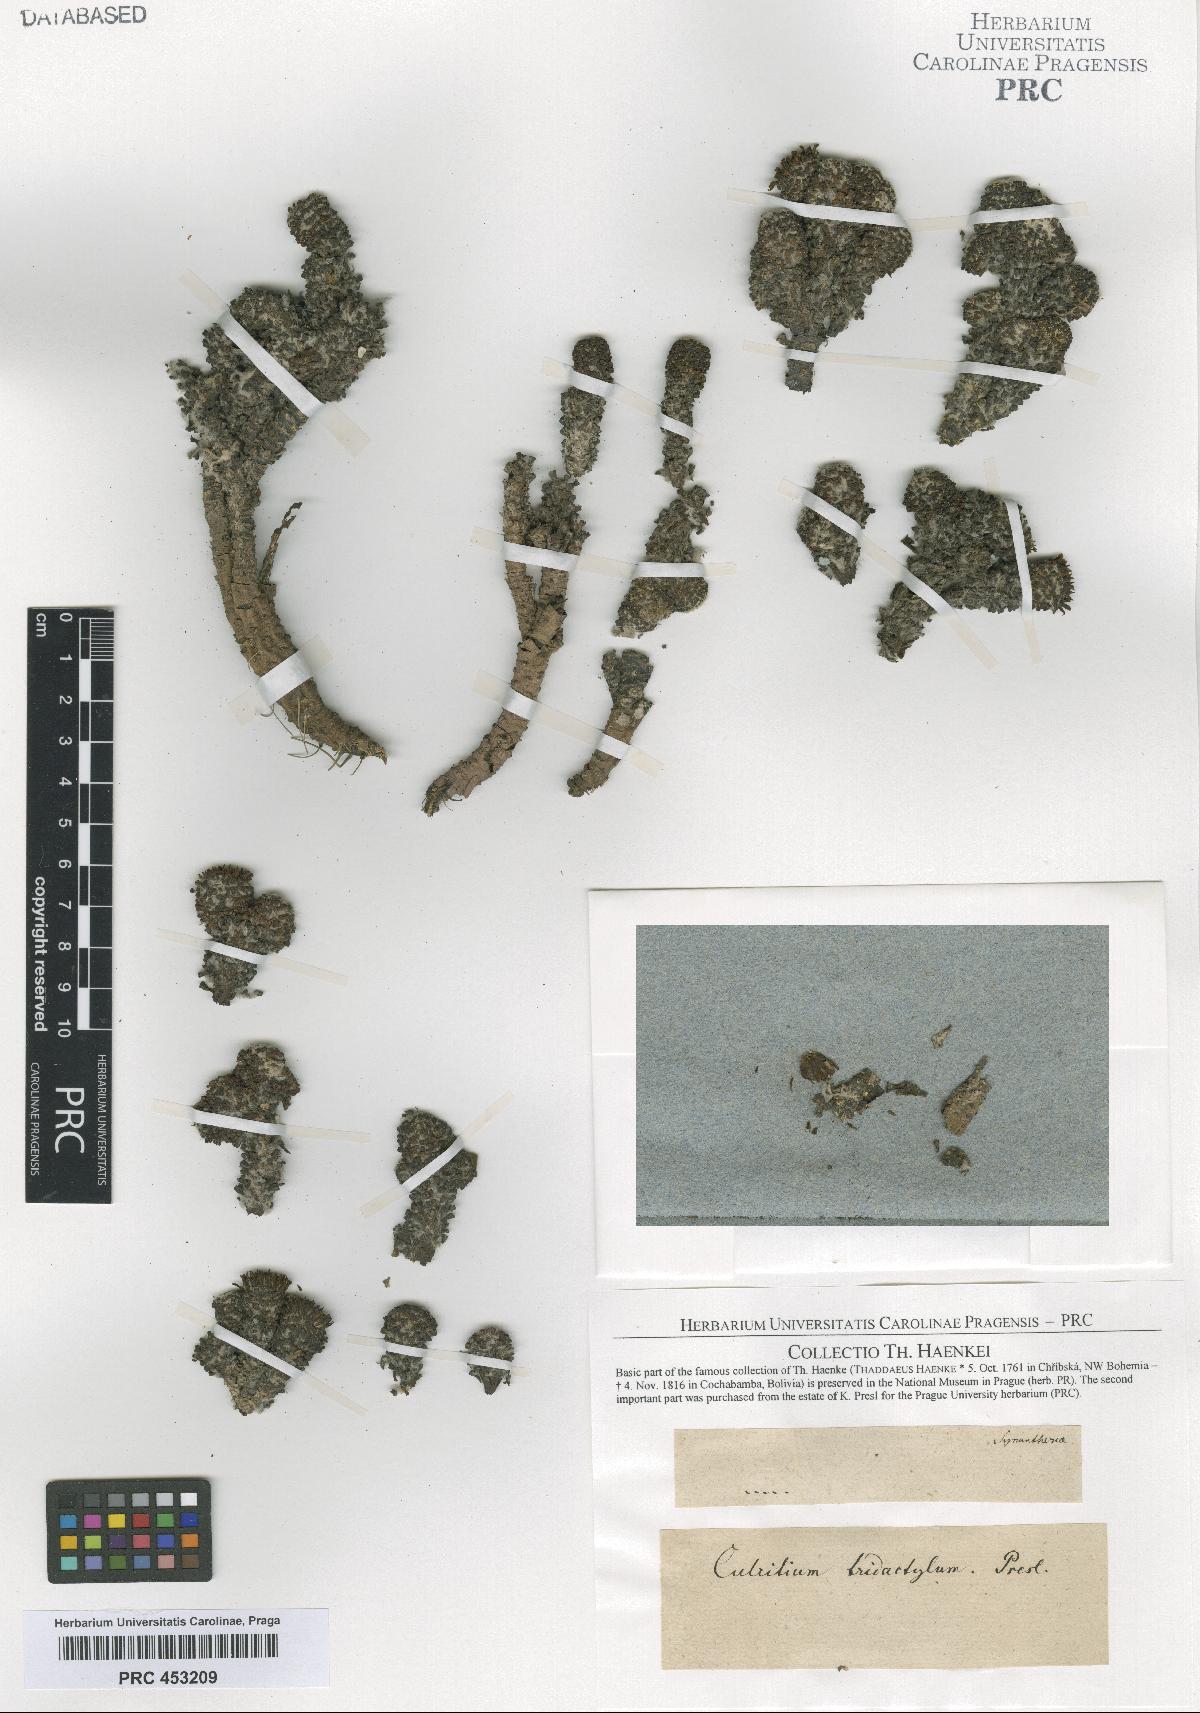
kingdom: Plantae
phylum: Tracheophyta
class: Magnoliopsida
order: Asterales
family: Asteraceae
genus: Culcitium
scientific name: Culcitium
